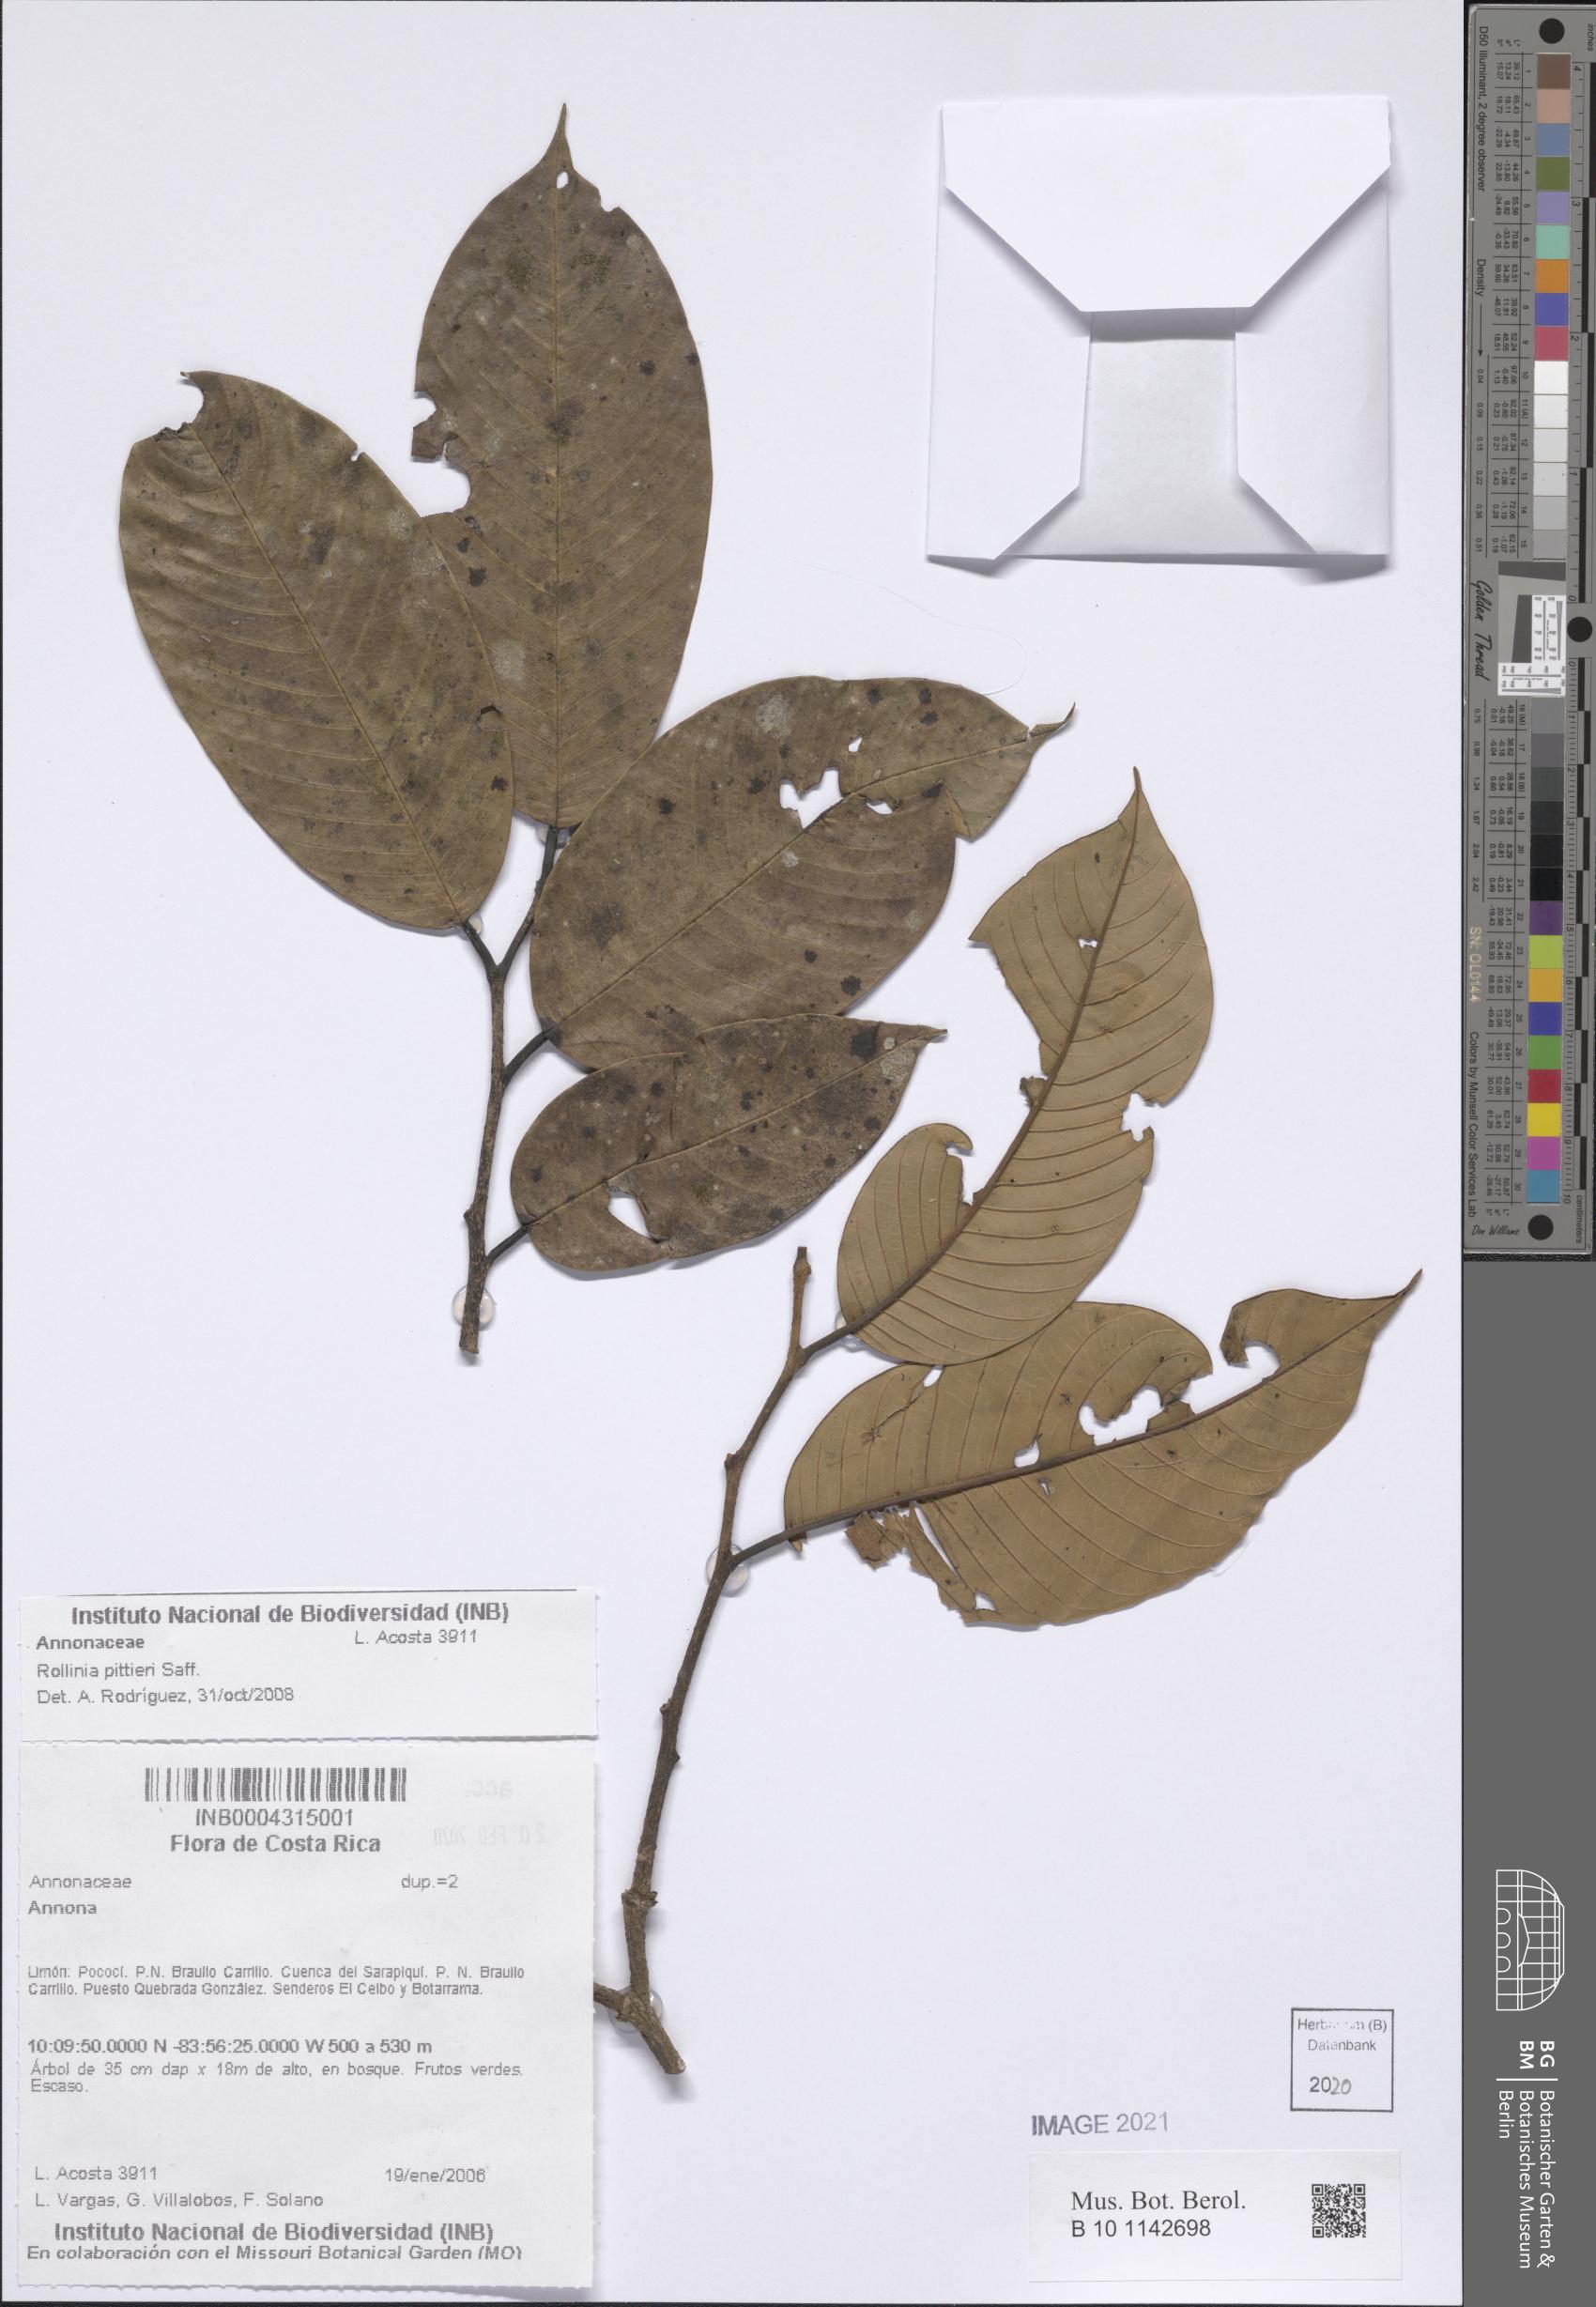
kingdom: Plantae
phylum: Tracheophyta
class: Magnoliopsida
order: Magnoliales
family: Annonaceae
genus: Annona
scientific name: Annona papilionella
